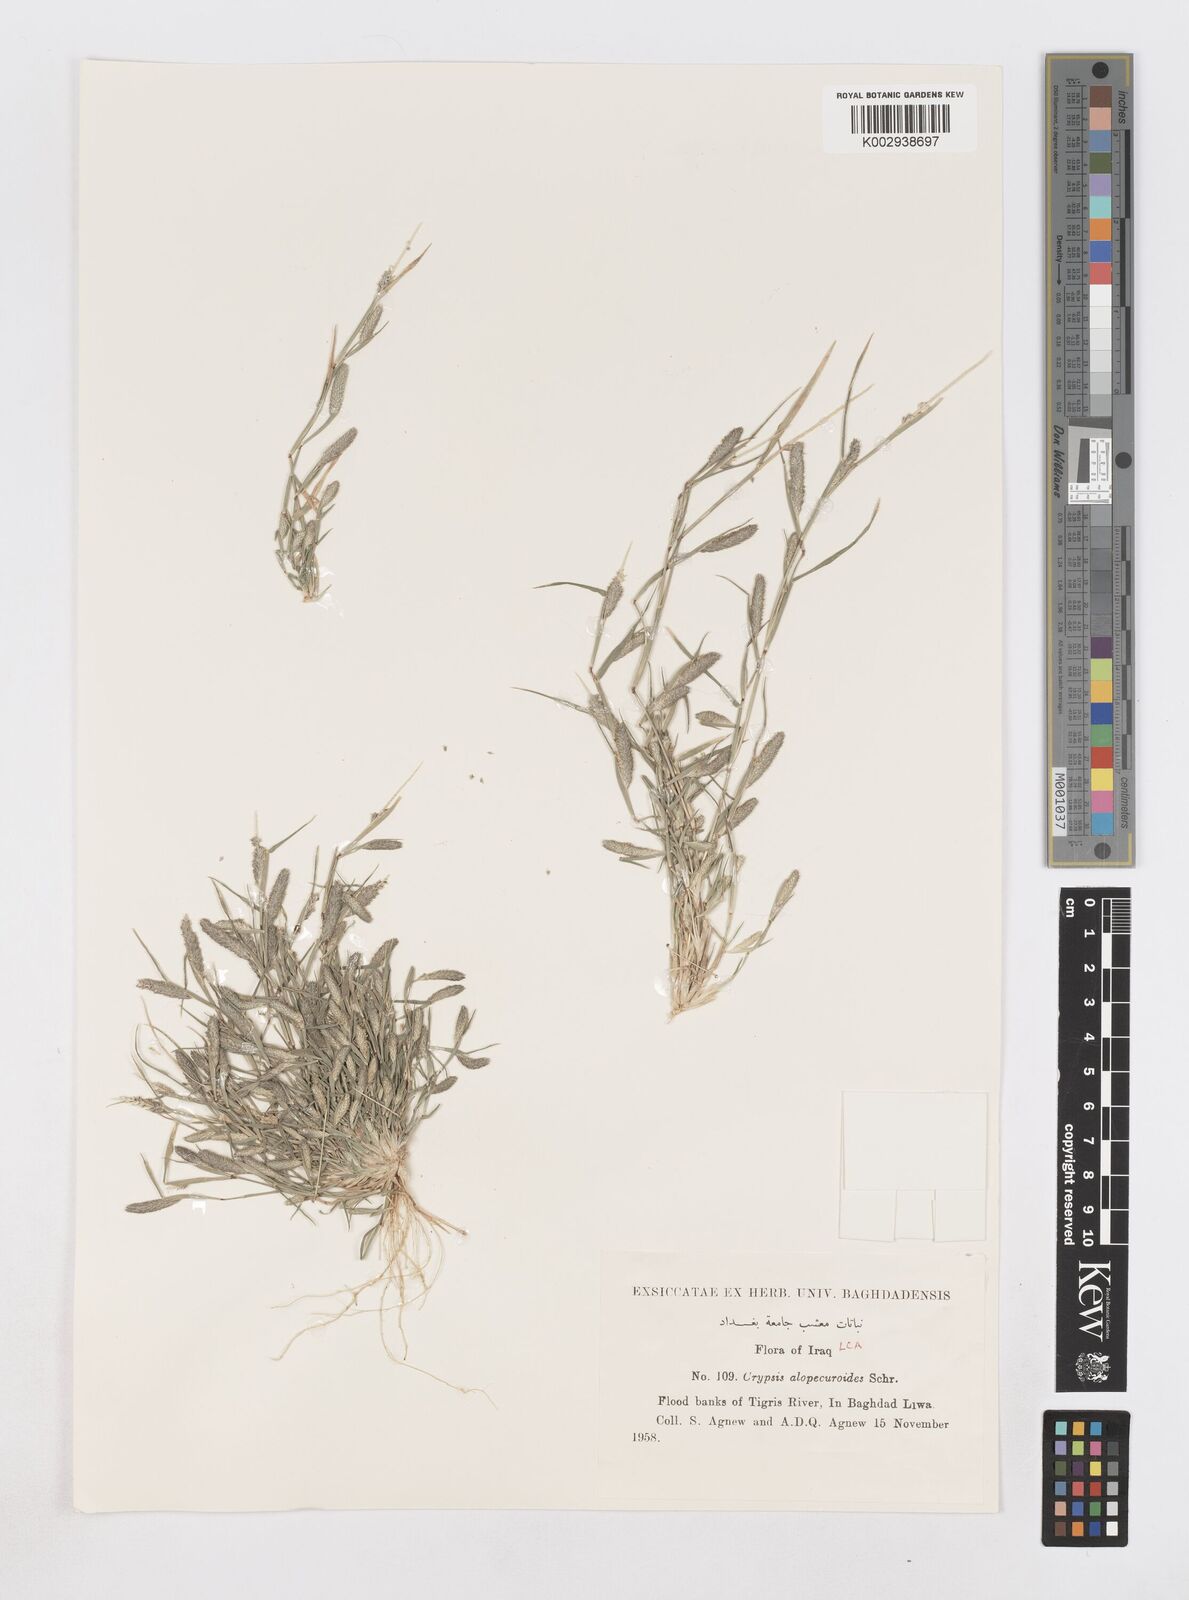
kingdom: Plantae
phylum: Tracheophyta
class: Liliopsida
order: Poales
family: Poaceae
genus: Sporobolus
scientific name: Sporobolus alopecuroides
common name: Foxtail pricklegrass
